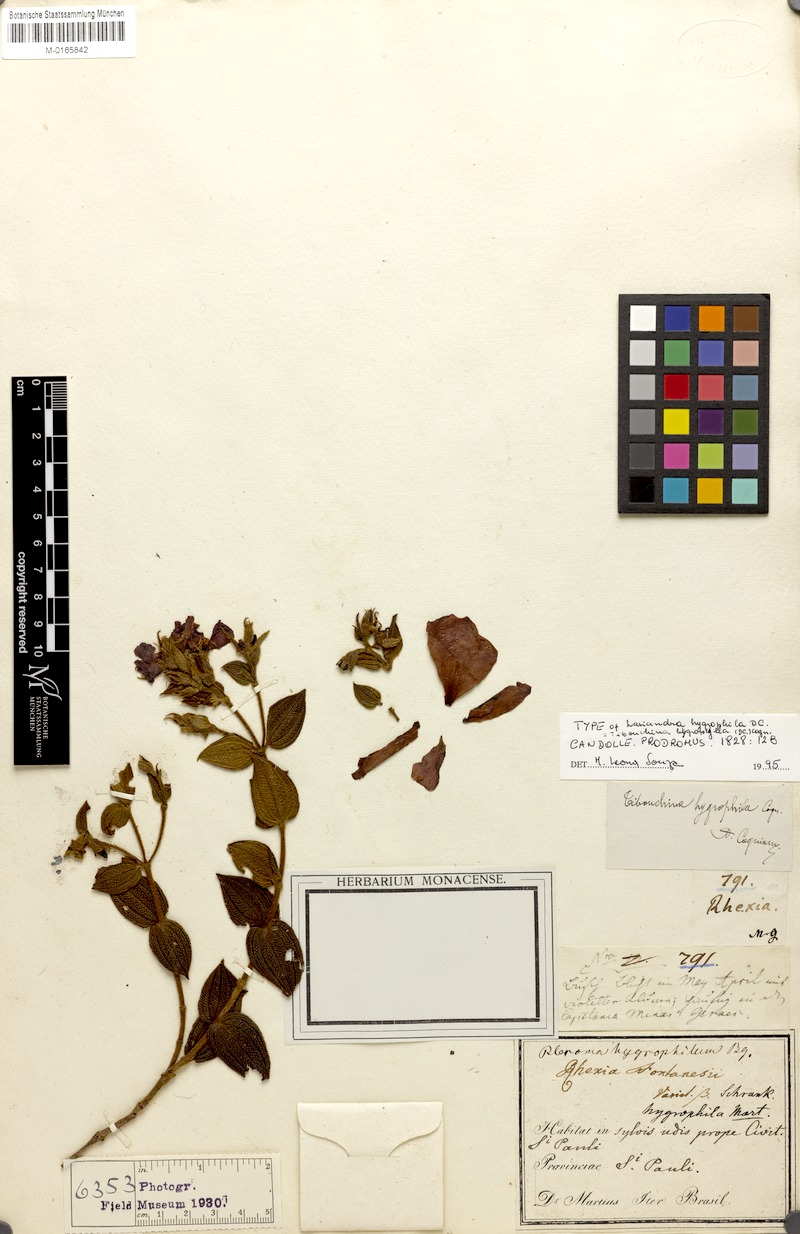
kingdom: Plantae
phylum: Tracheophyta
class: Magnoliopsida
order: Myrtales
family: Melastomataceae
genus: Pleroma
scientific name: Pleroma aemula
